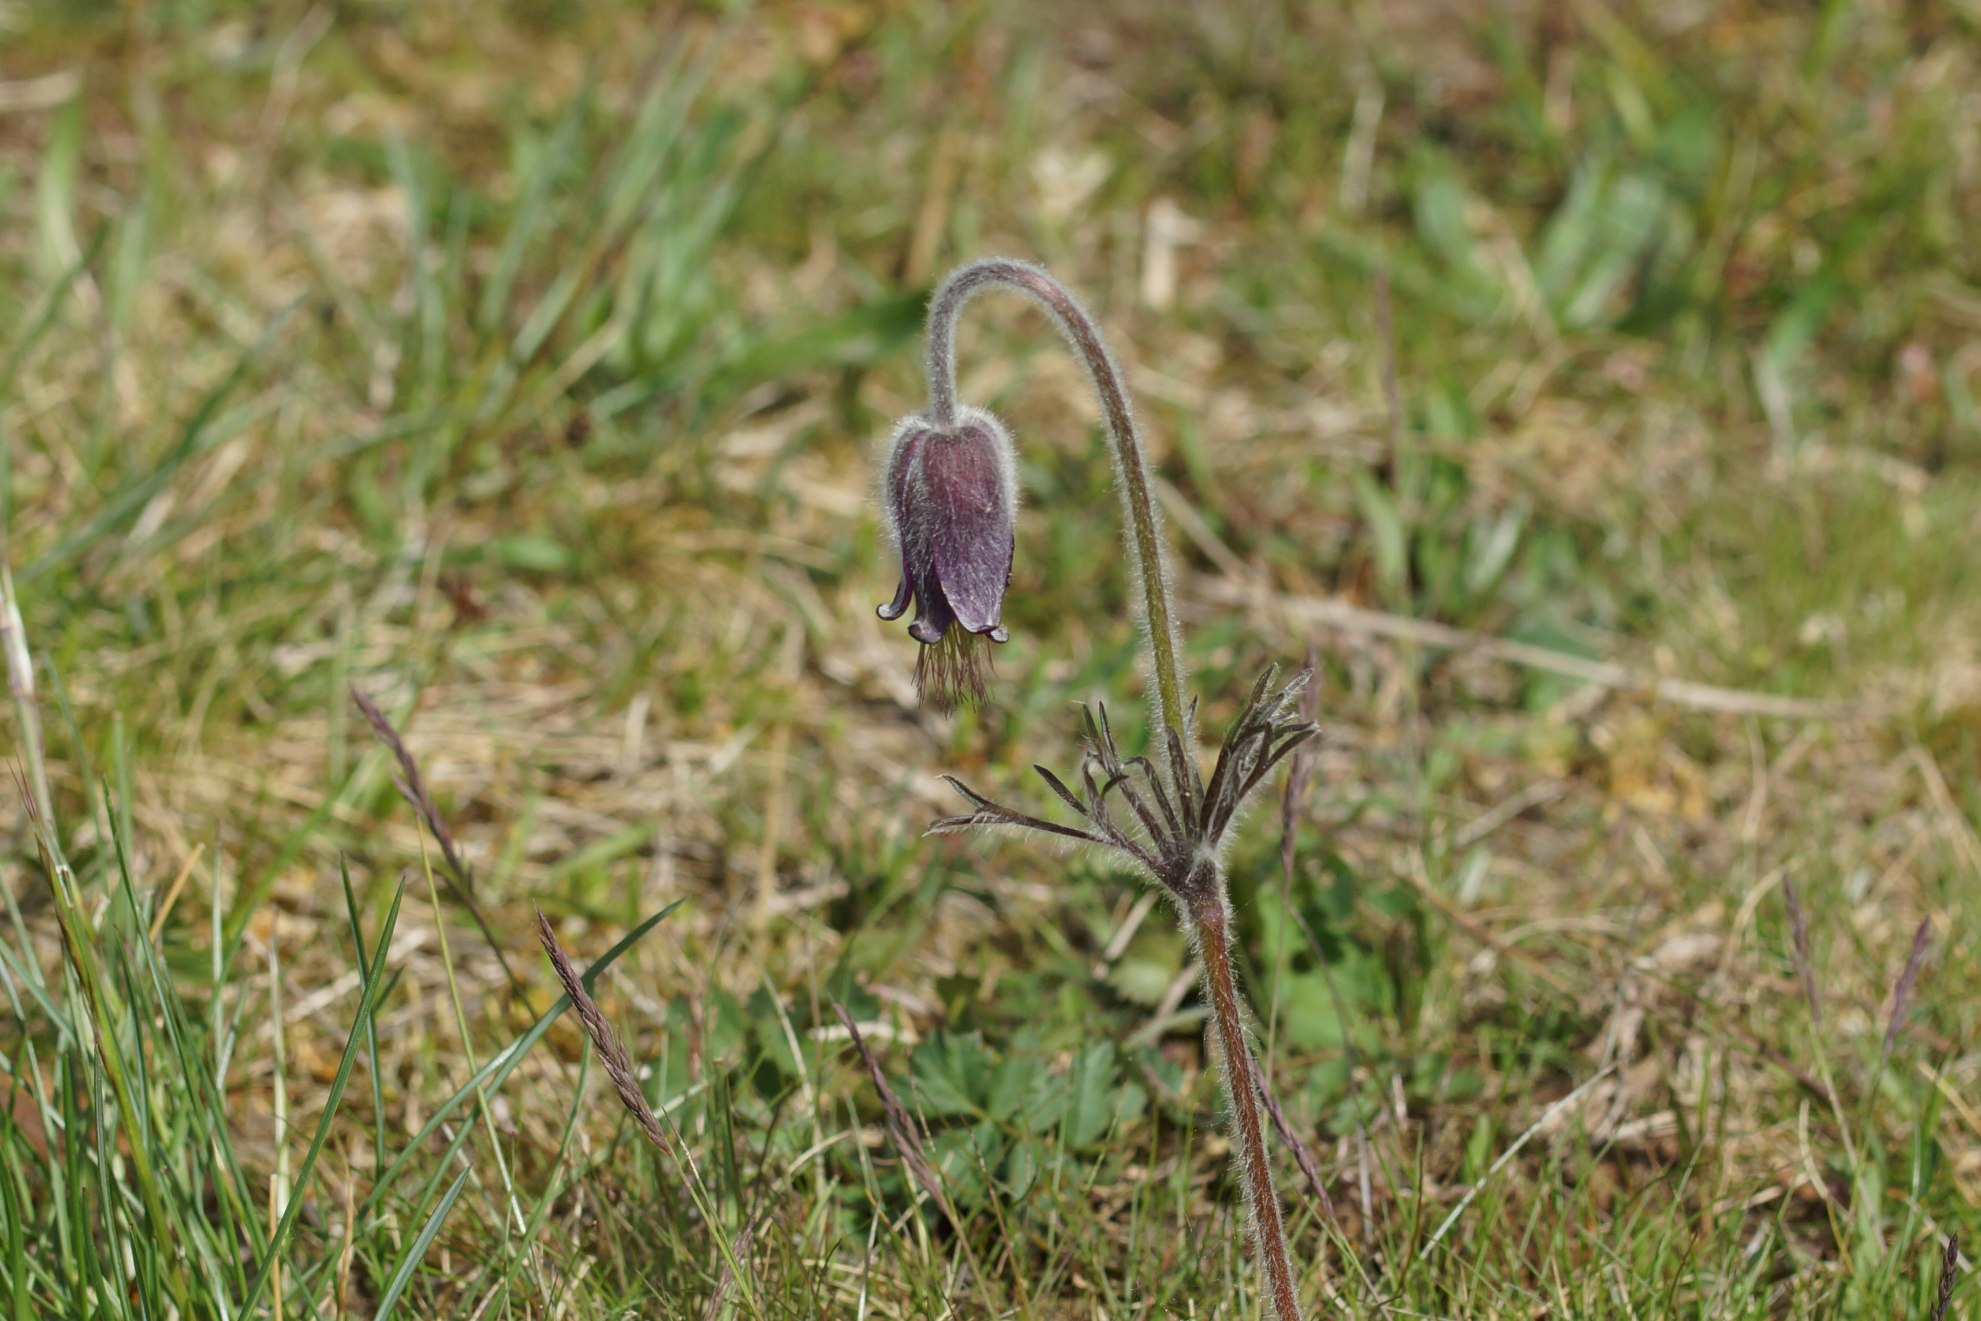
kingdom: Plantae
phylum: Tracheophyta
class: Magnoliopsida
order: Ranunculales
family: Ranunculaceae
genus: Pulsatilla
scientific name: Pulsatilla pratensis
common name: Nikkende kobjælde
